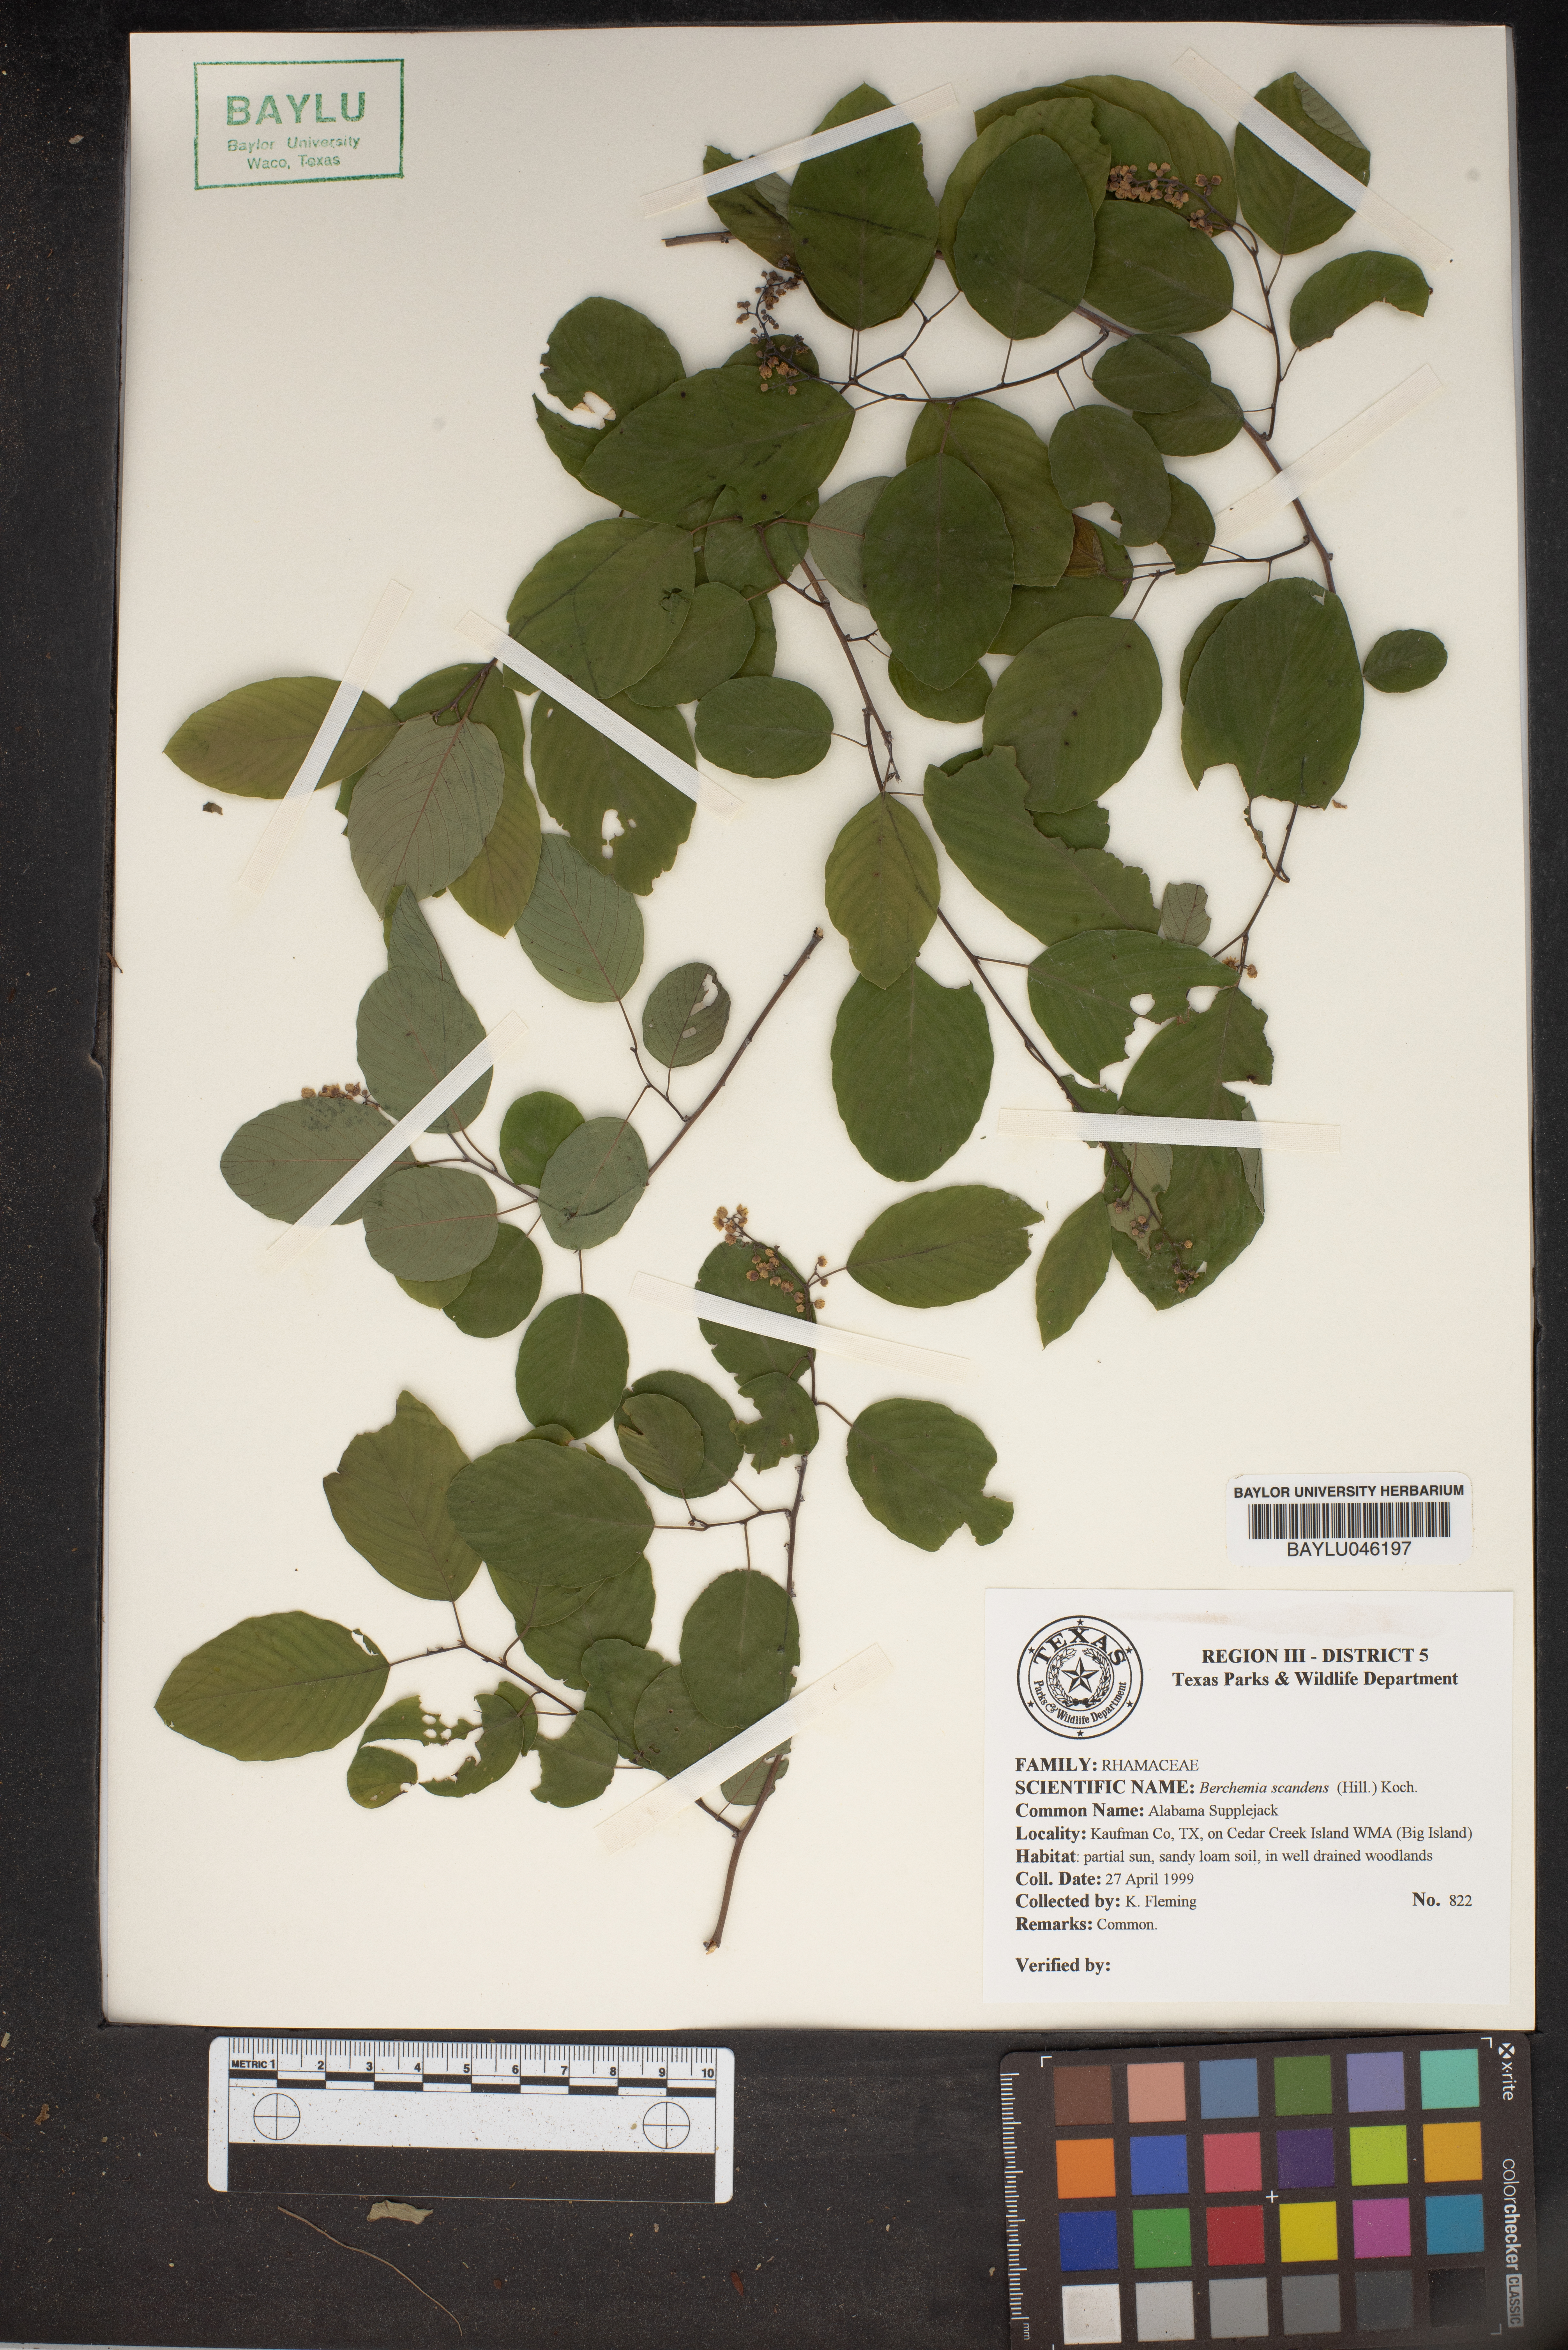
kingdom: Plantae
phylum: Tracheophyta
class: Magnoliopsida
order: Rosales
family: Rhamnaceae
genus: Berchemia
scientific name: Berchemia scandens
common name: Supplejack
